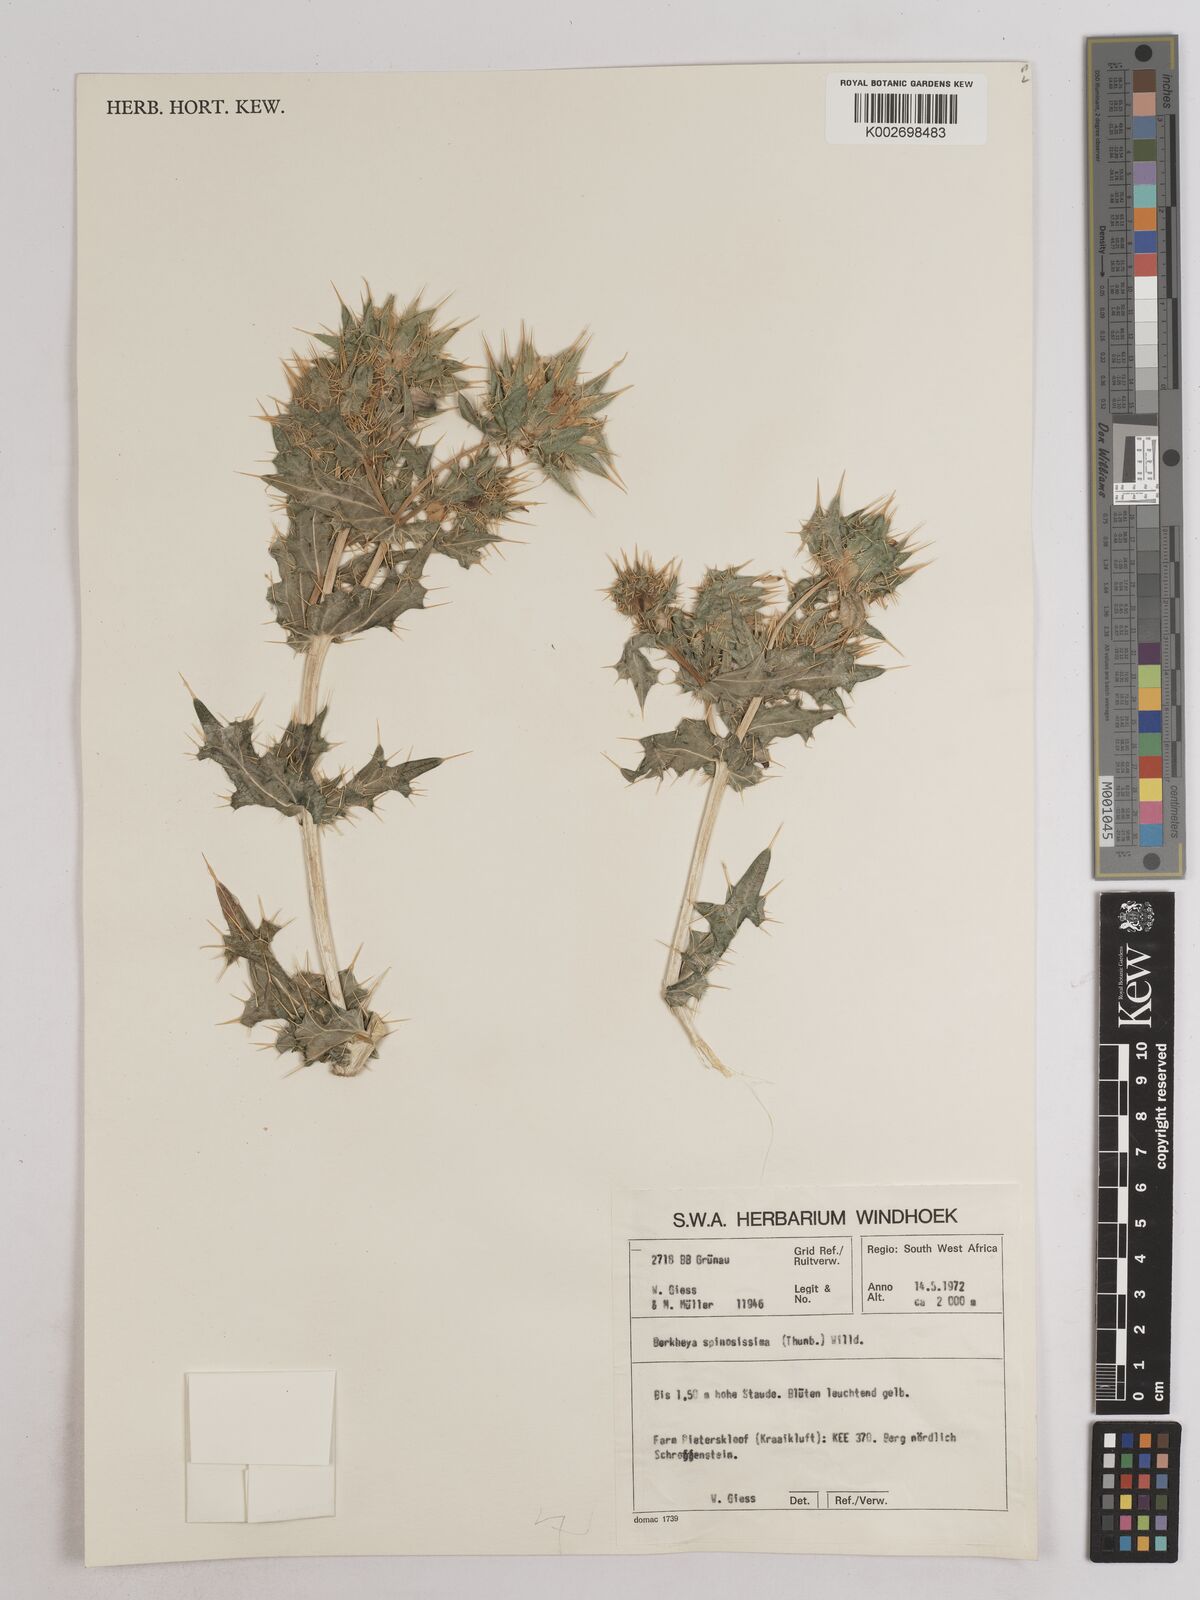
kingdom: Plantae
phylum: Tracheophyta
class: Magnoliopsida
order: Asterales
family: Asteraceae
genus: Berkheya
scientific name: Berkheya spinosissima
